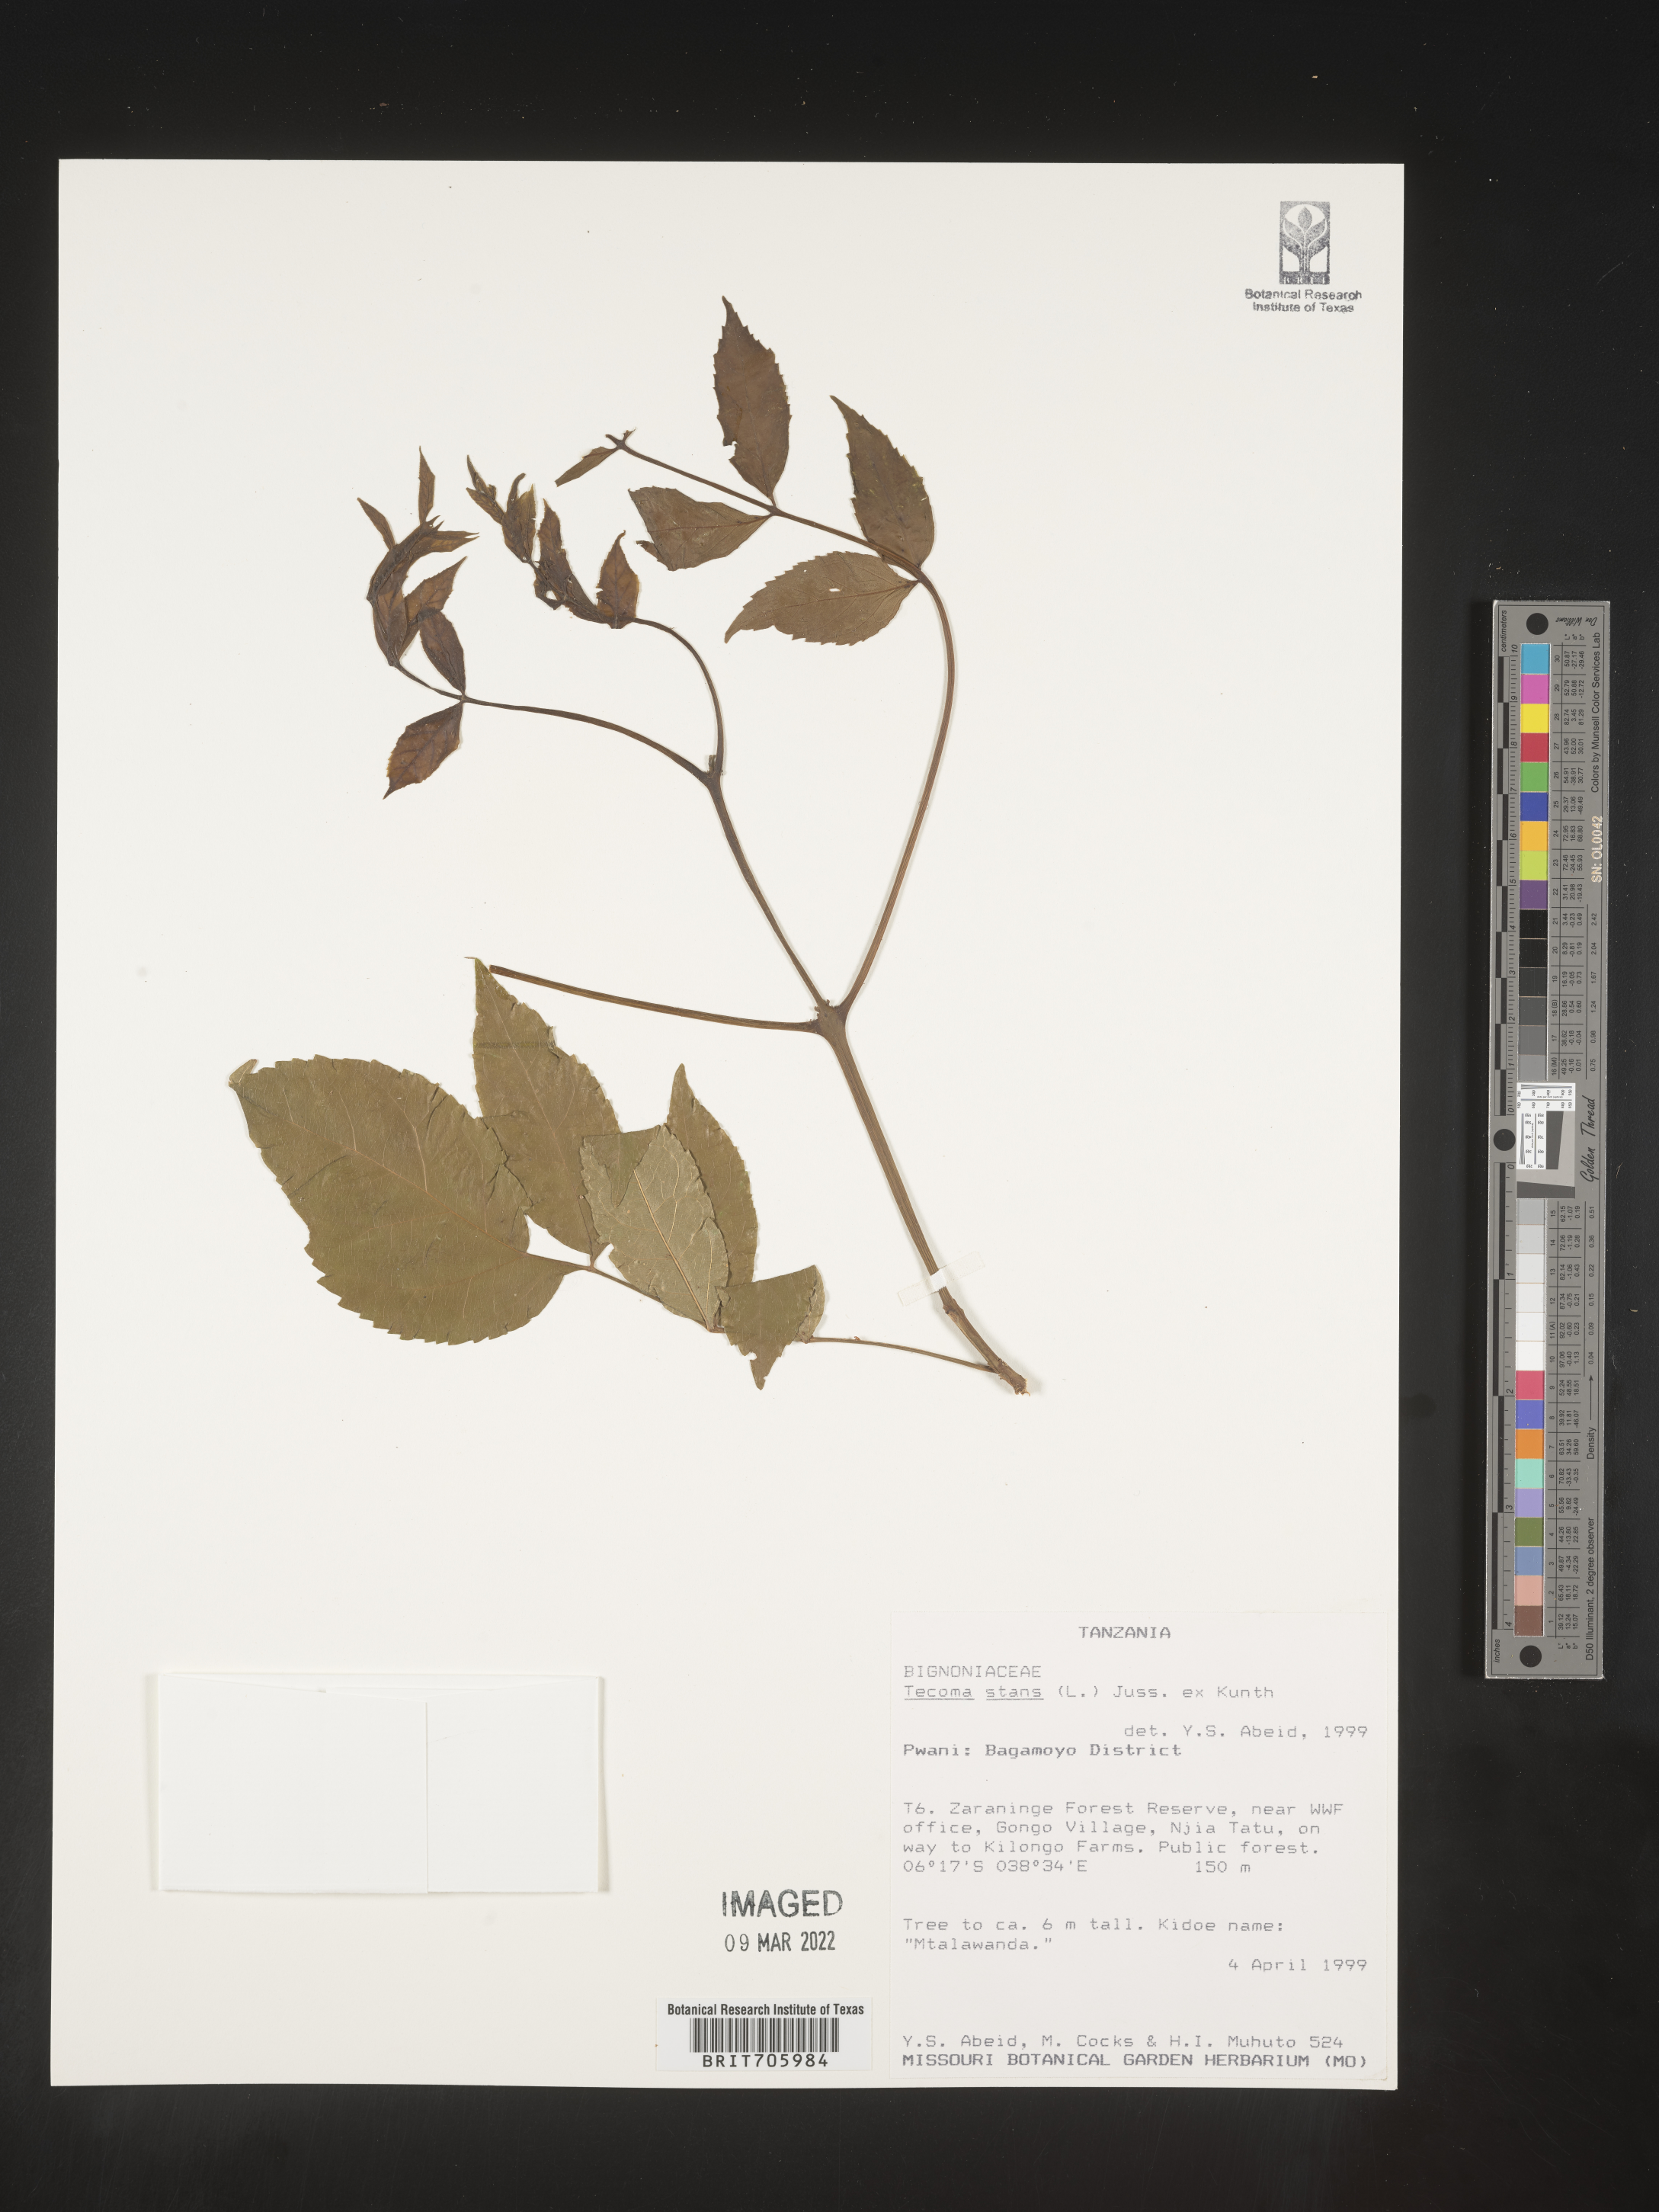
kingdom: Plantae
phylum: Tracheophyta
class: Magnoliopsida
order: Lamiales
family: Bignoniaceae
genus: Tecoma
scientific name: Tecoma
